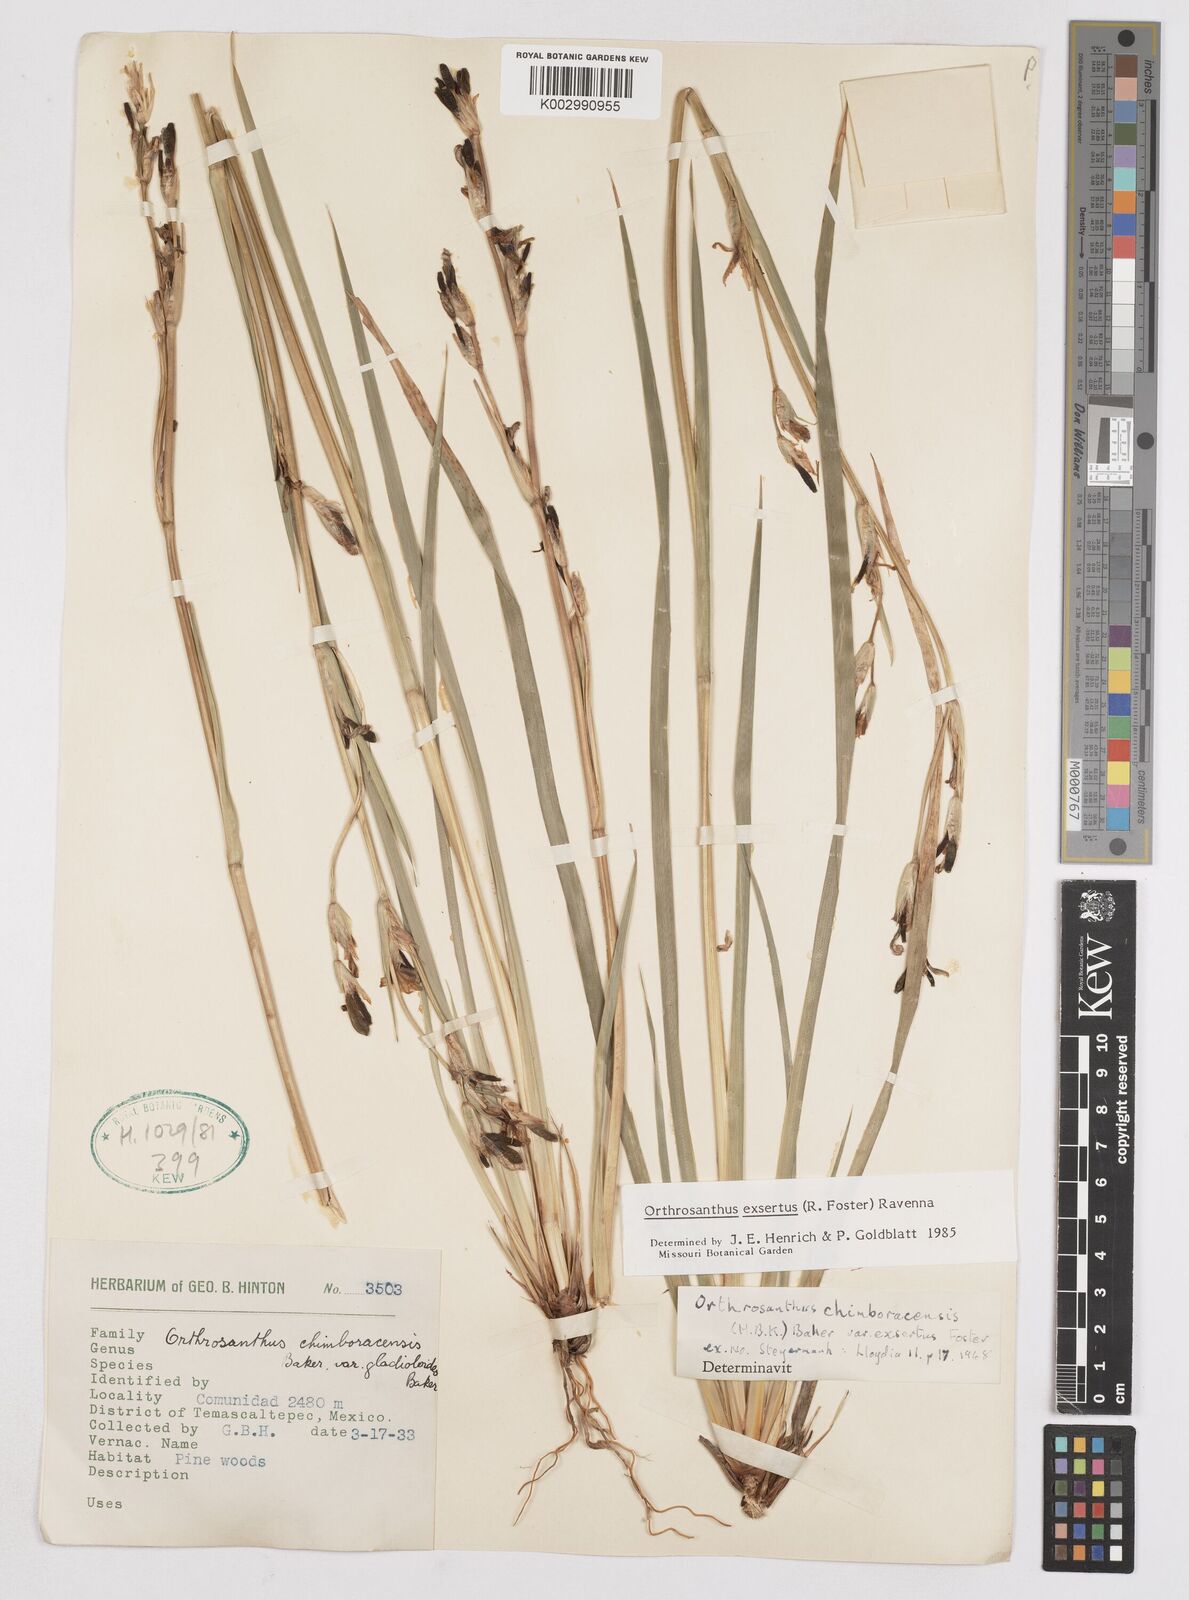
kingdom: Plantae
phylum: Tracheophyta
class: Liliopsida
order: Asparagales
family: Iridaceae
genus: Orthrosanthus
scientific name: Orthrosanthus exsertus
